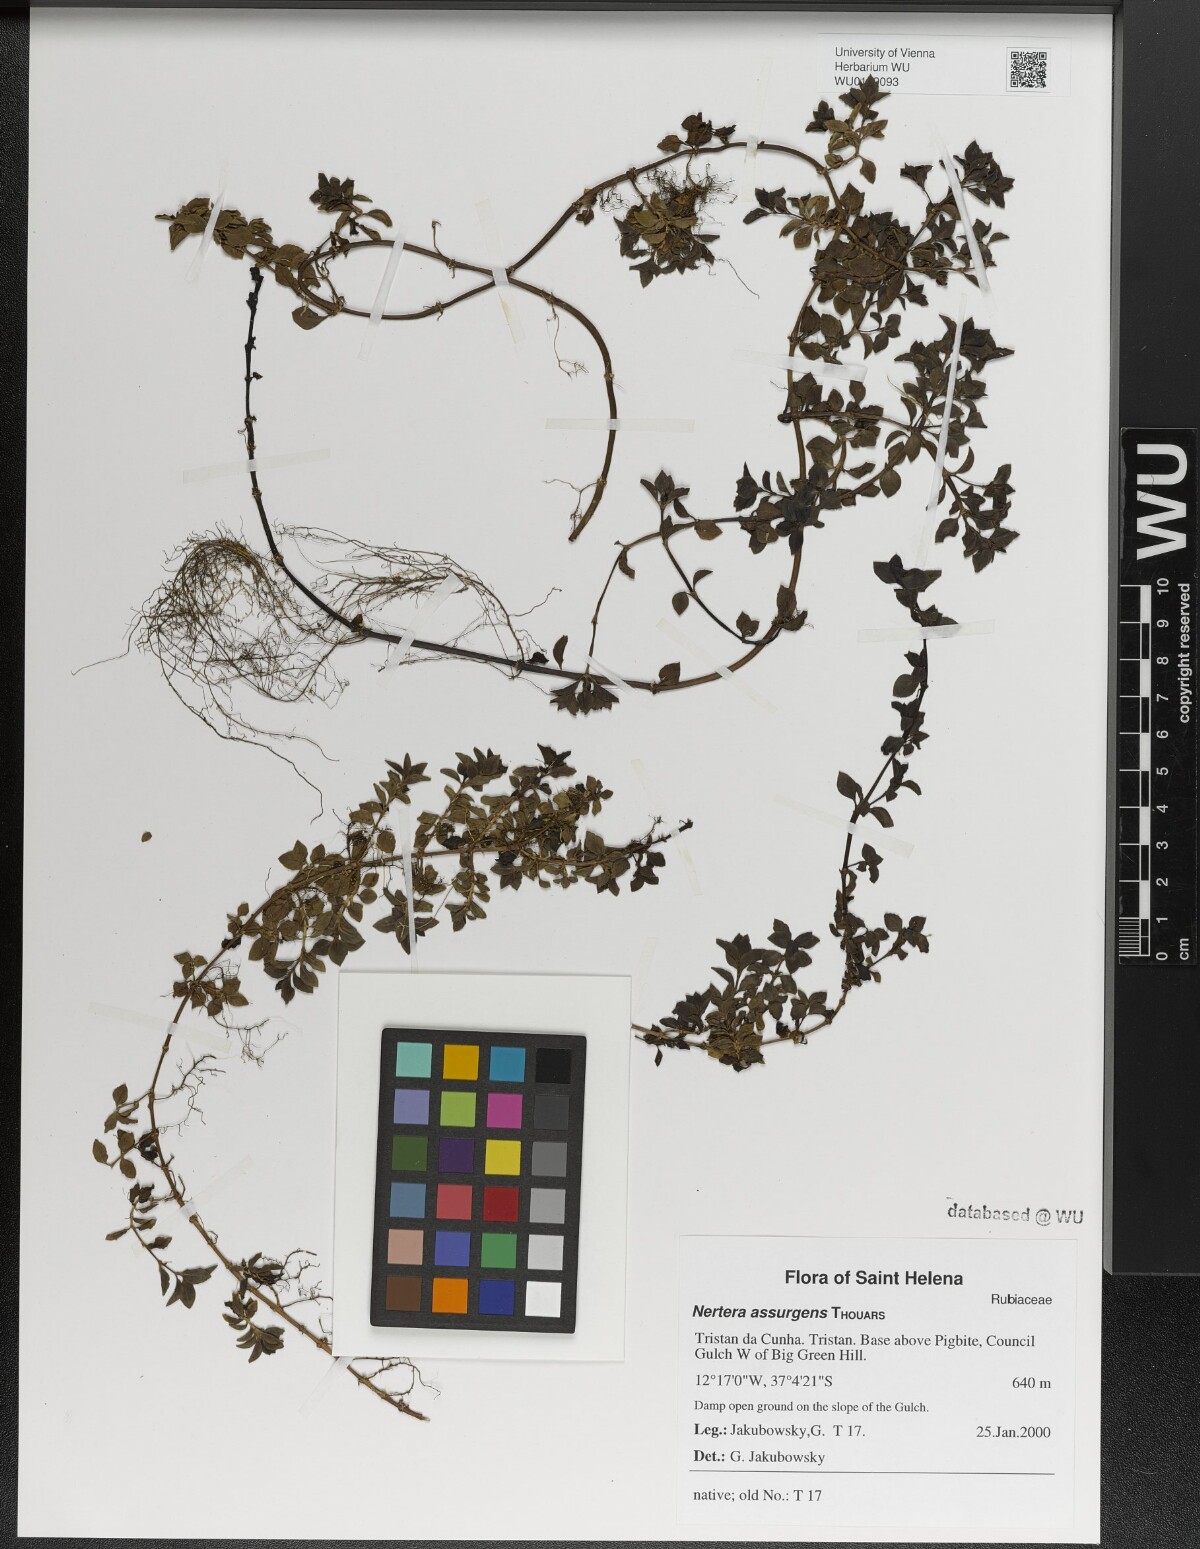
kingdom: Plantae
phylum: Tracheophyta
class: Magnoliopsida
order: Gentianales
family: Rubiaceae
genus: Nertera
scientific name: Nertera granadensis
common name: Beadplant
